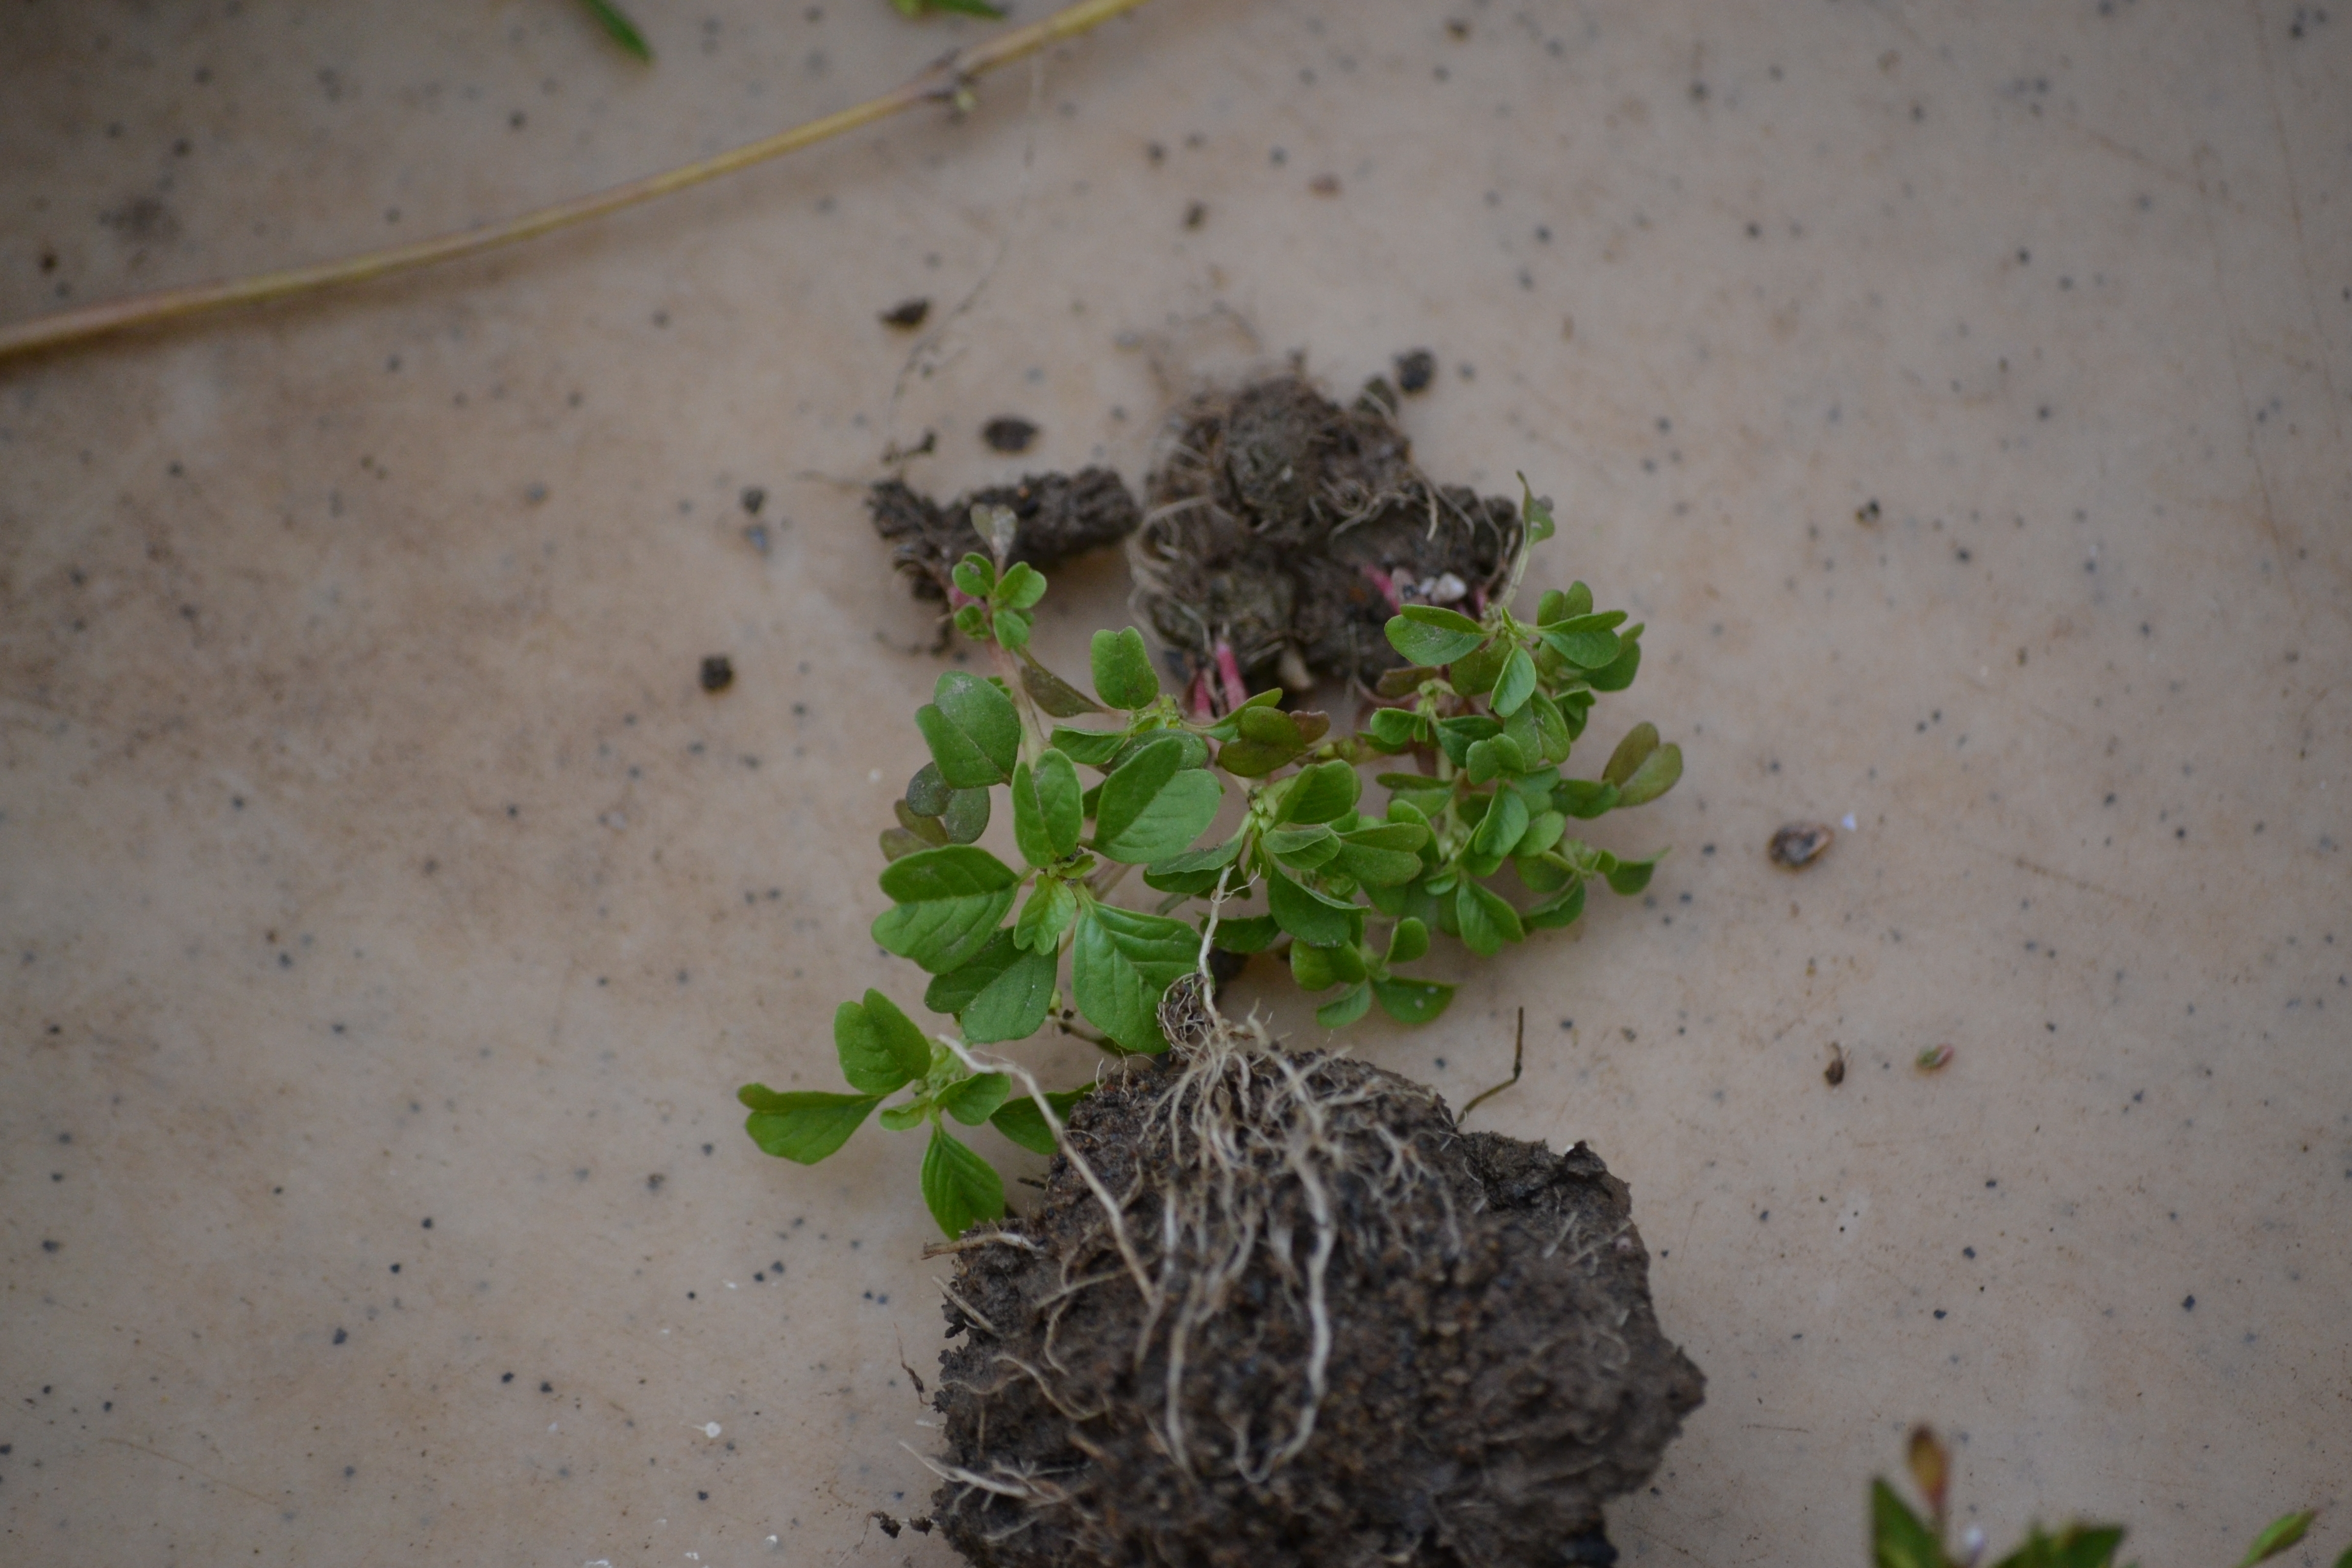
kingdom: Plantae
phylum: Tracheophyta
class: Magnoliopsida
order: Caryophyllales
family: Amaranthaceae
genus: Amaranthus
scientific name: Amaranthus blitum
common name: Purple amaranth
